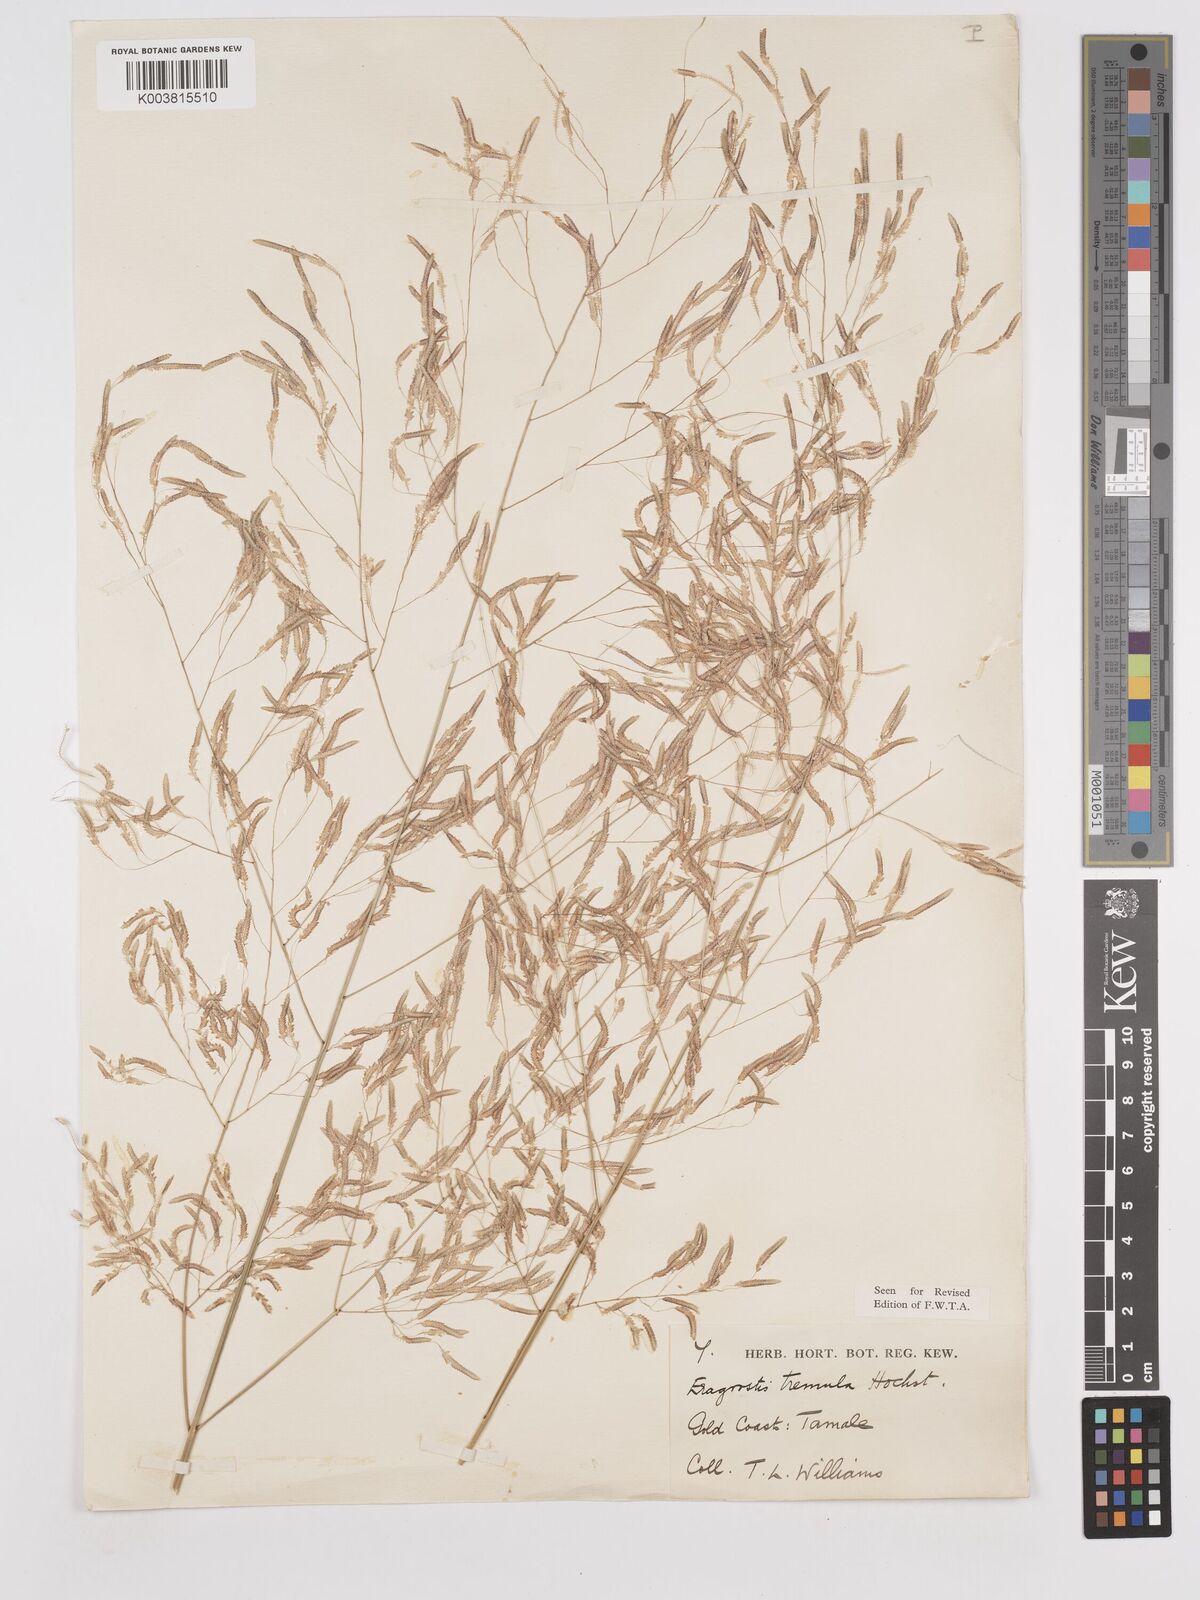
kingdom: Plantae
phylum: Tracheophyta
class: Liliopsida
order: Poales
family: Poaceae
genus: Eragrostis
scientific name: Eragrostis tremula
